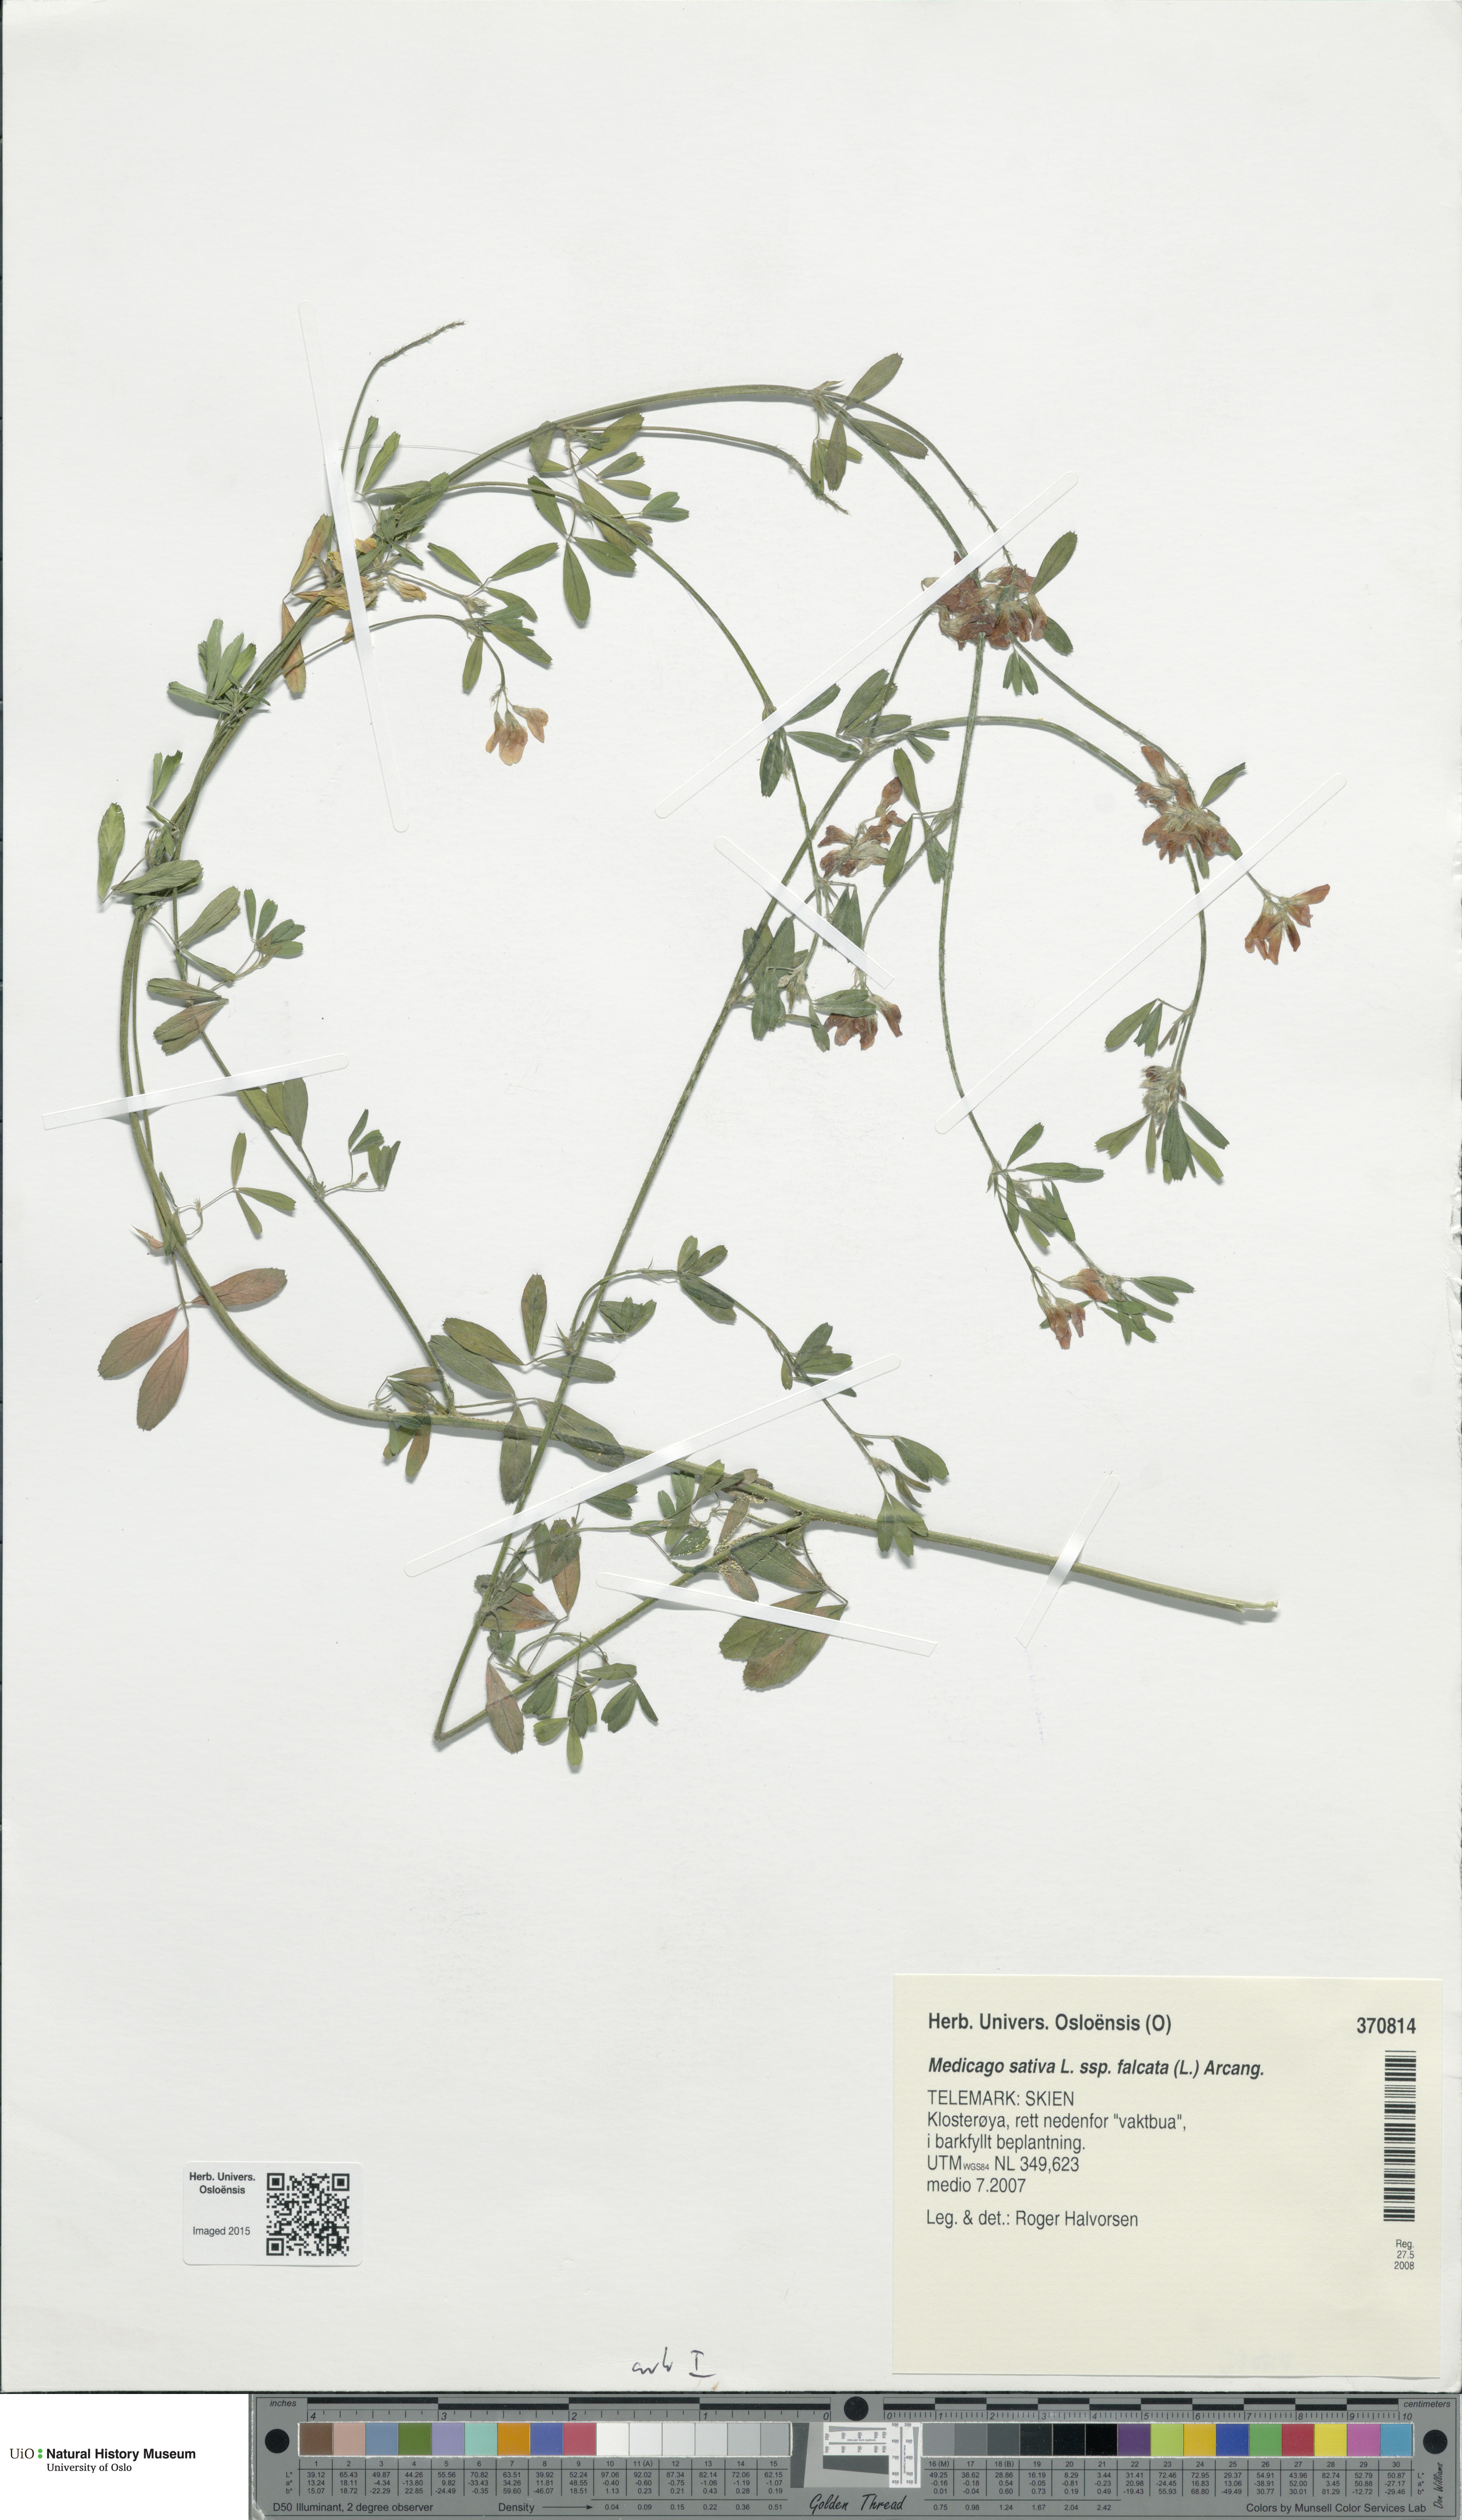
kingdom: Plantae
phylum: Tracheophyta
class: Magnoliopsida
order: Fabales
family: Fabaceae
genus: Medicago
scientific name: Medicago falcata
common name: Sickle medick
